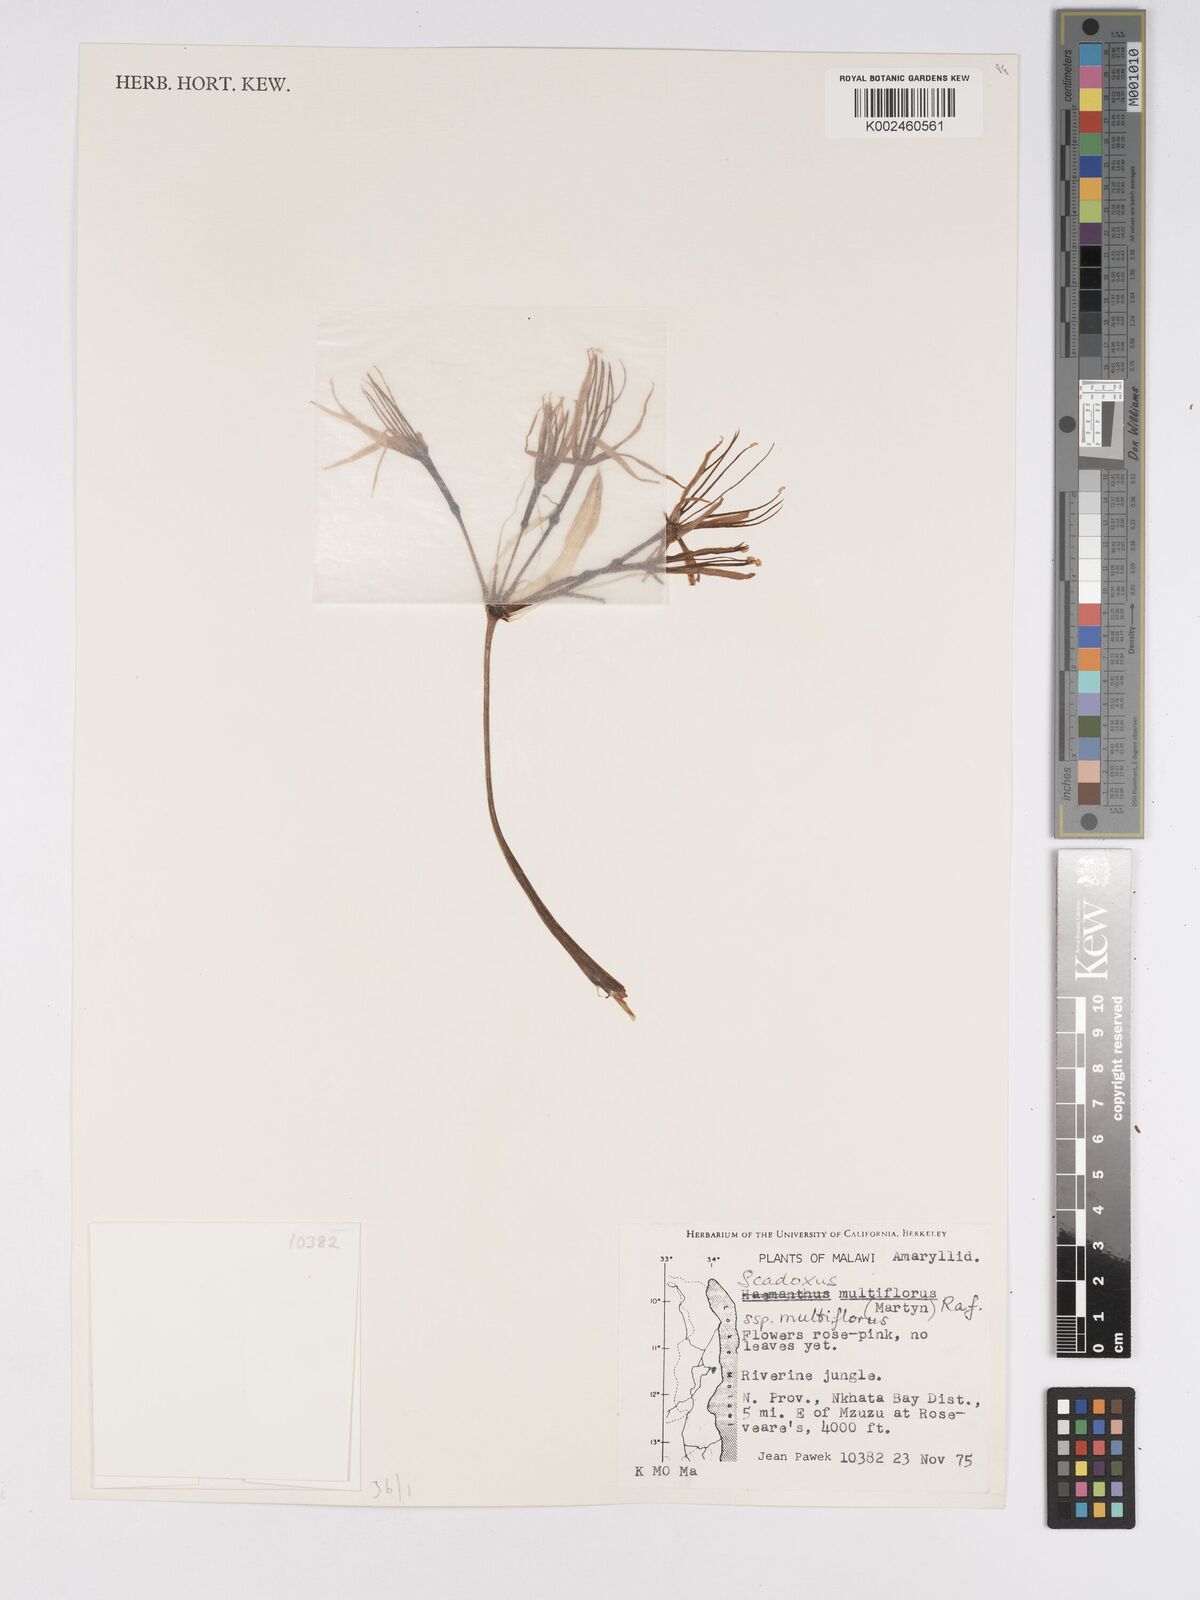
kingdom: Plantae
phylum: Tracheophyta
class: Liliopsida
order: Asparagales
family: Amaryllidaceae
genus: Scadoxus
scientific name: Scadoxus multiflorus
